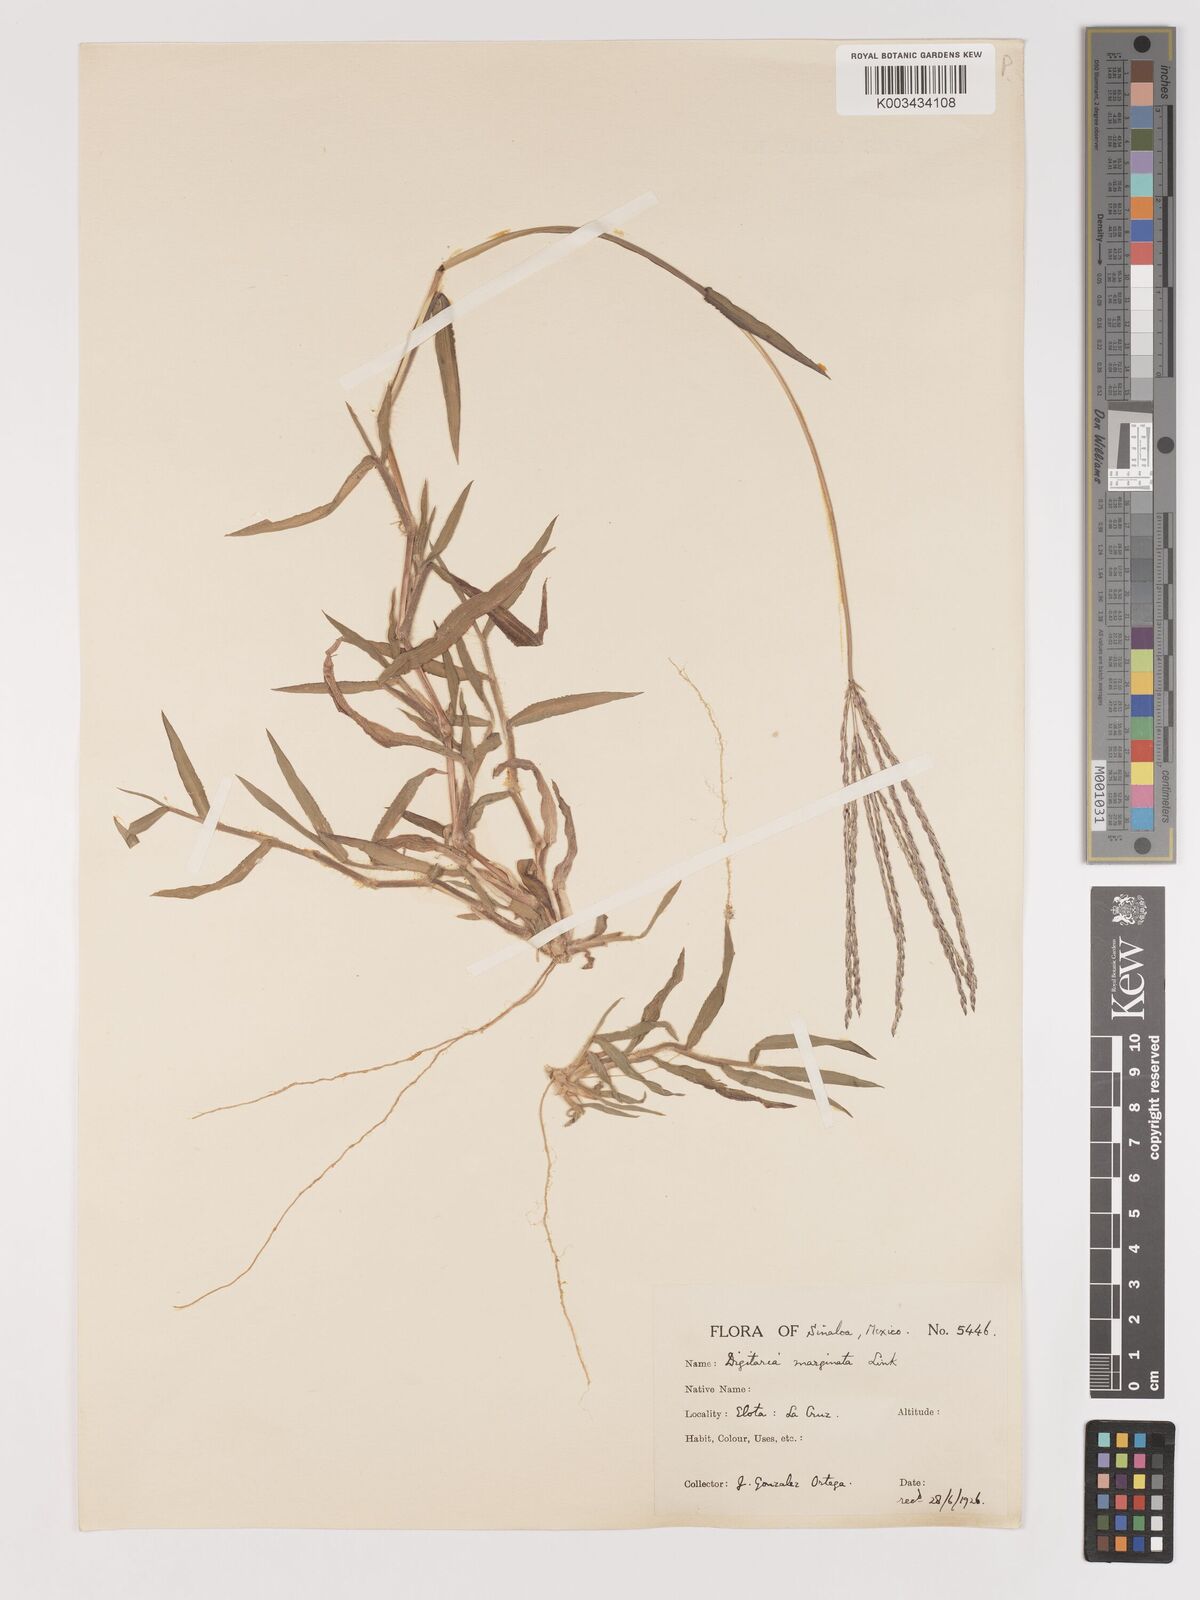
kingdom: Plantae
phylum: Tracheophyta
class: Liliopsida
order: Poales
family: Poaceae
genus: Digitaria
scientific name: Digitaria ciliaris
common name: Tropical finger-grass
